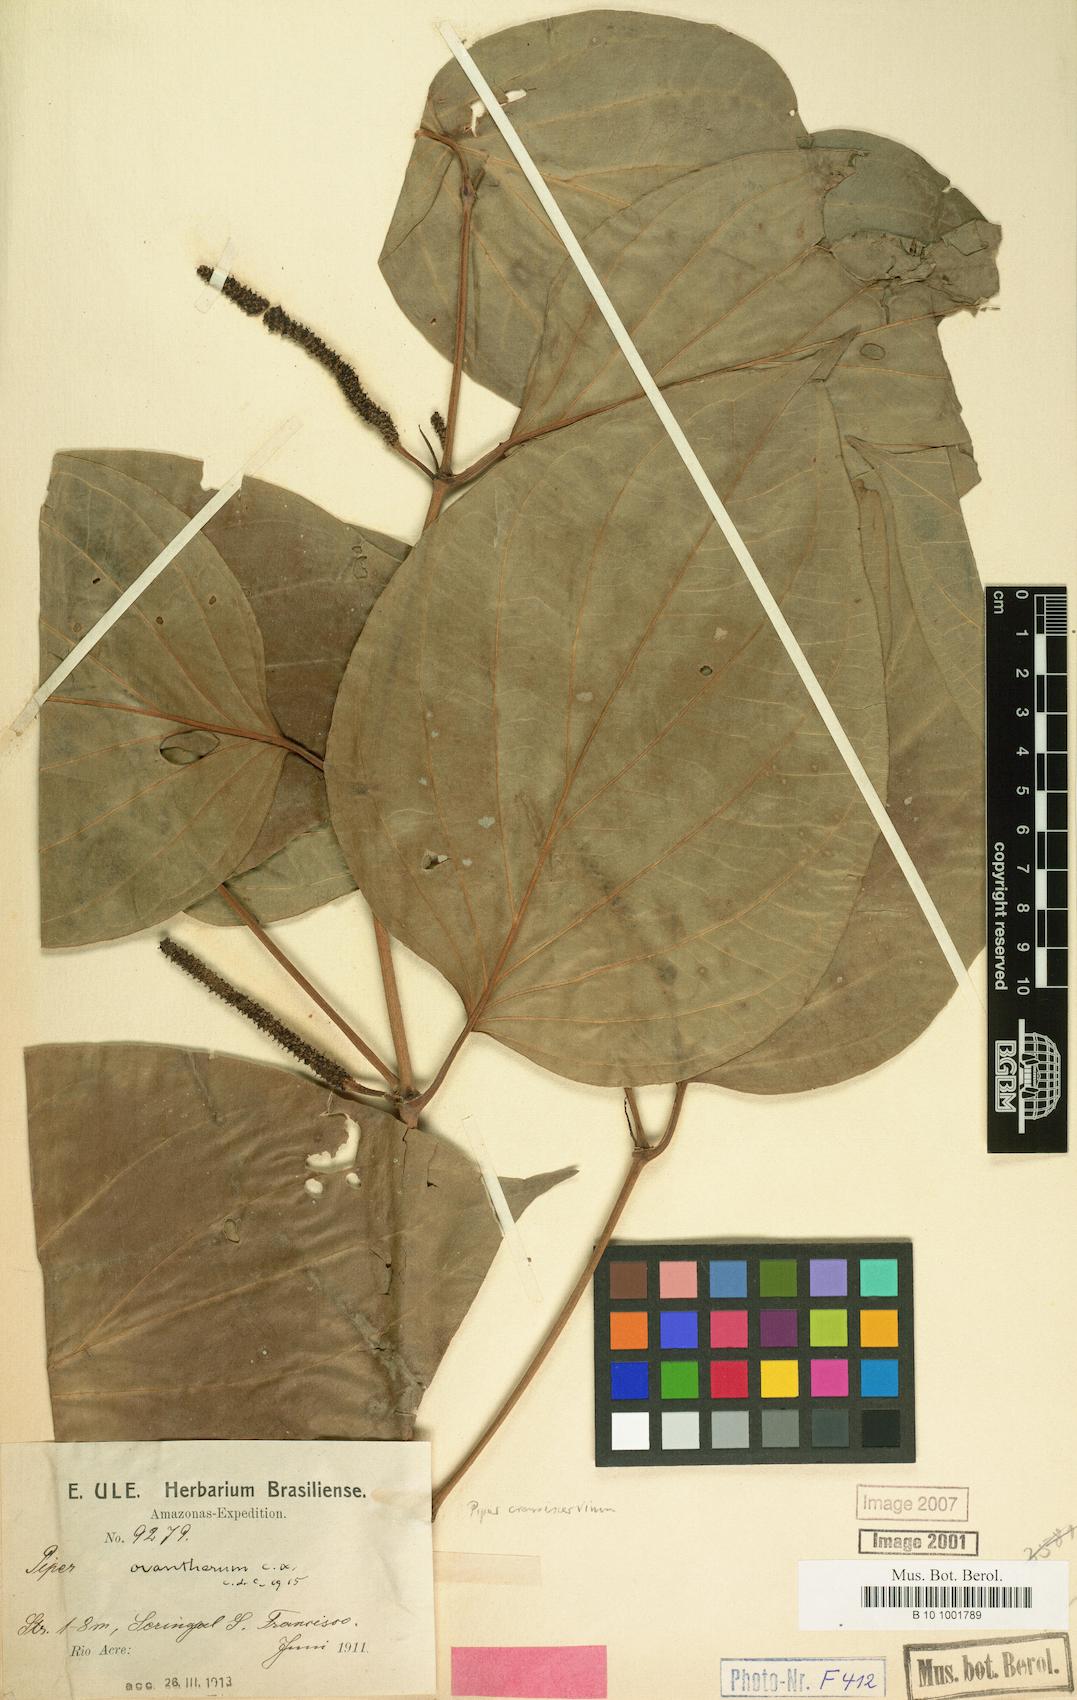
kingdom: Plantae
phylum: Tracheophyta
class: Magnoliopsida
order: Piperales
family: Piperaceae
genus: Piper
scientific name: Piper crassinervium
